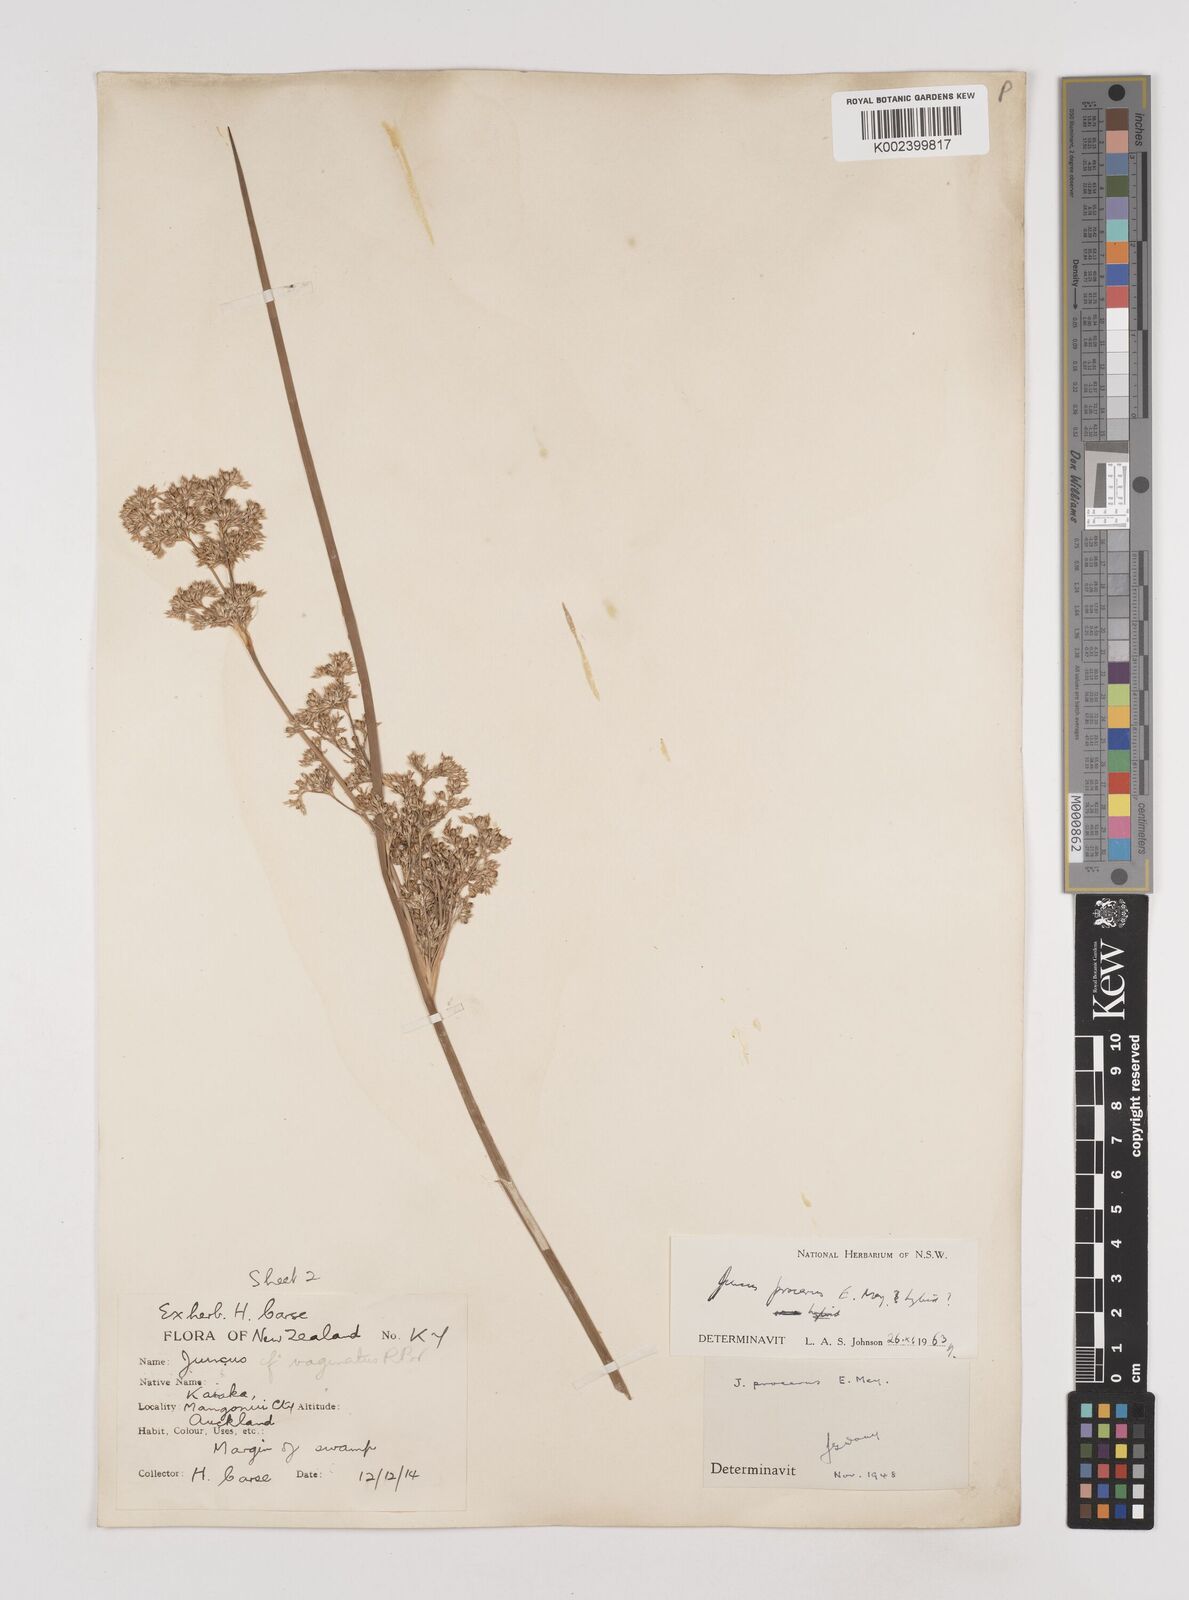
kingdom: Plantae
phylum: Tracheophyta
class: Liliopsida
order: Poales
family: Juncaceae
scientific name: Juncaceae
